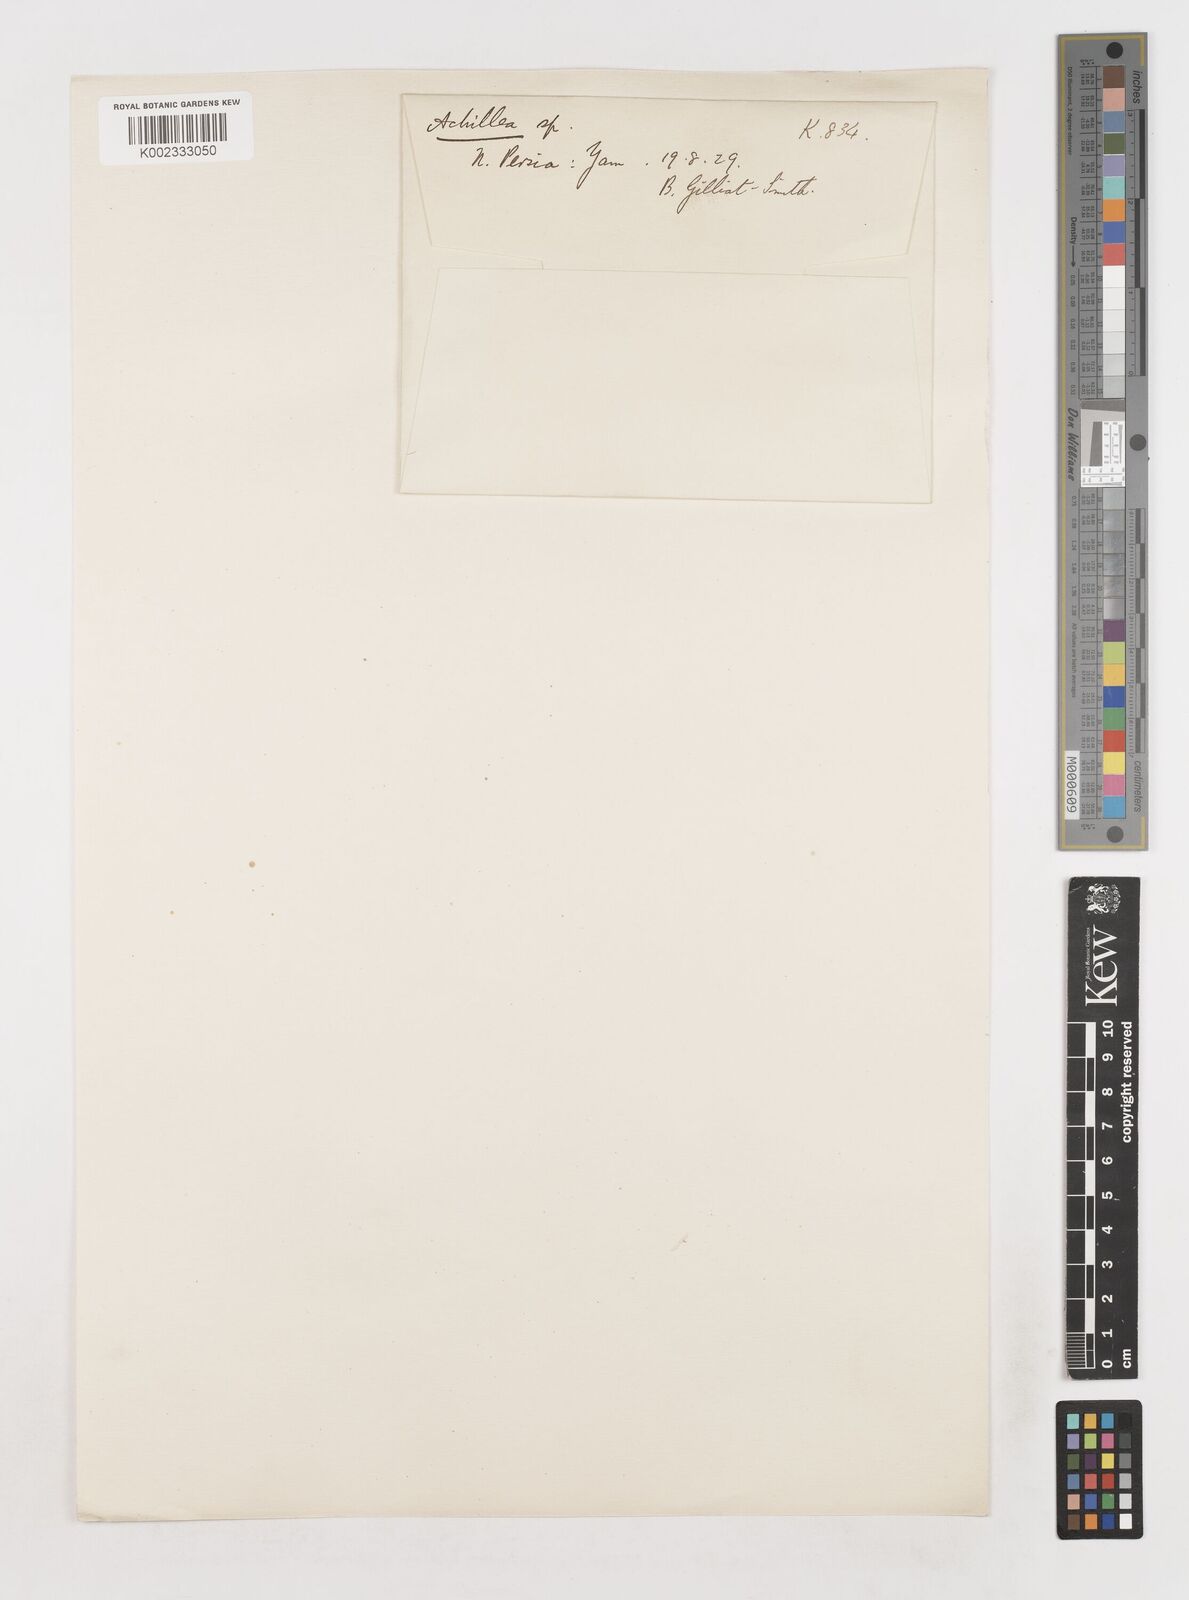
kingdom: Plantae
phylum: Tracheophyta
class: Magnoliopsida
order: Asterales
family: Asteraceae
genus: Achillea
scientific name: Achillea
